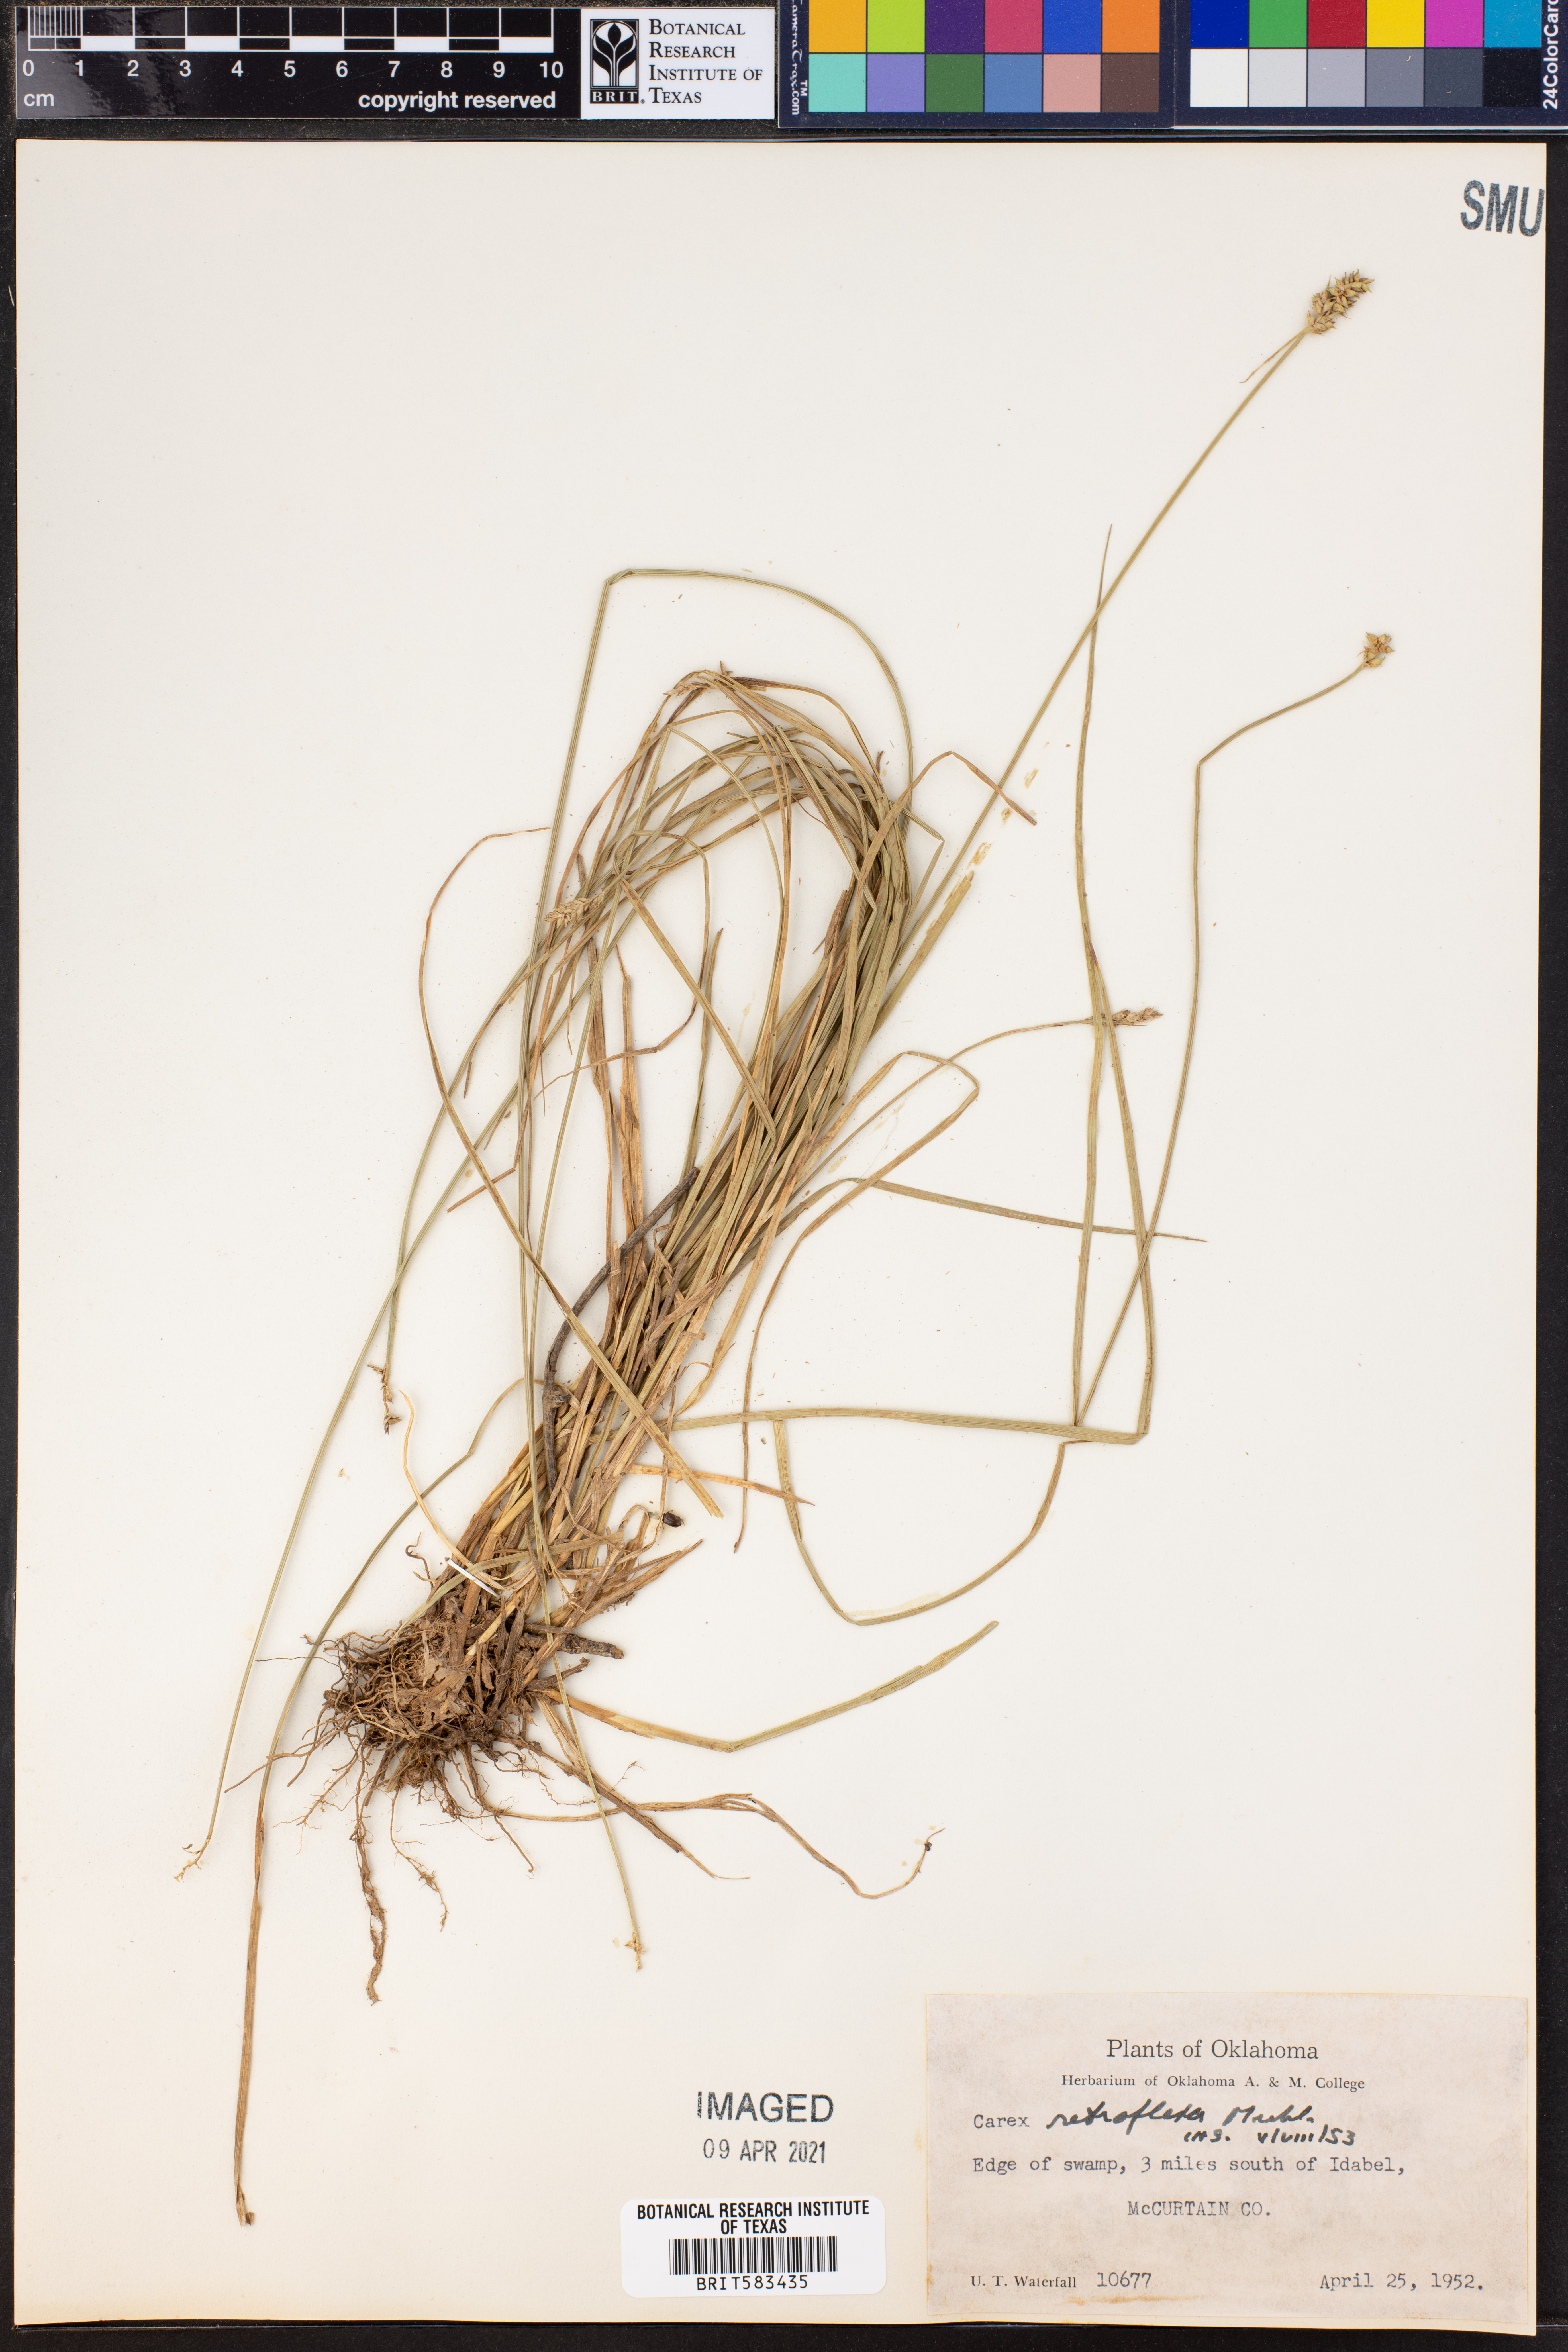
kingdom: Plantae
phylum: Tracheophyta
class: Liliopsida
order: Poales
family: Cyperaceae
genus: Carex
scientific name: Carex retroflexa
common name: Reflexed sedge
